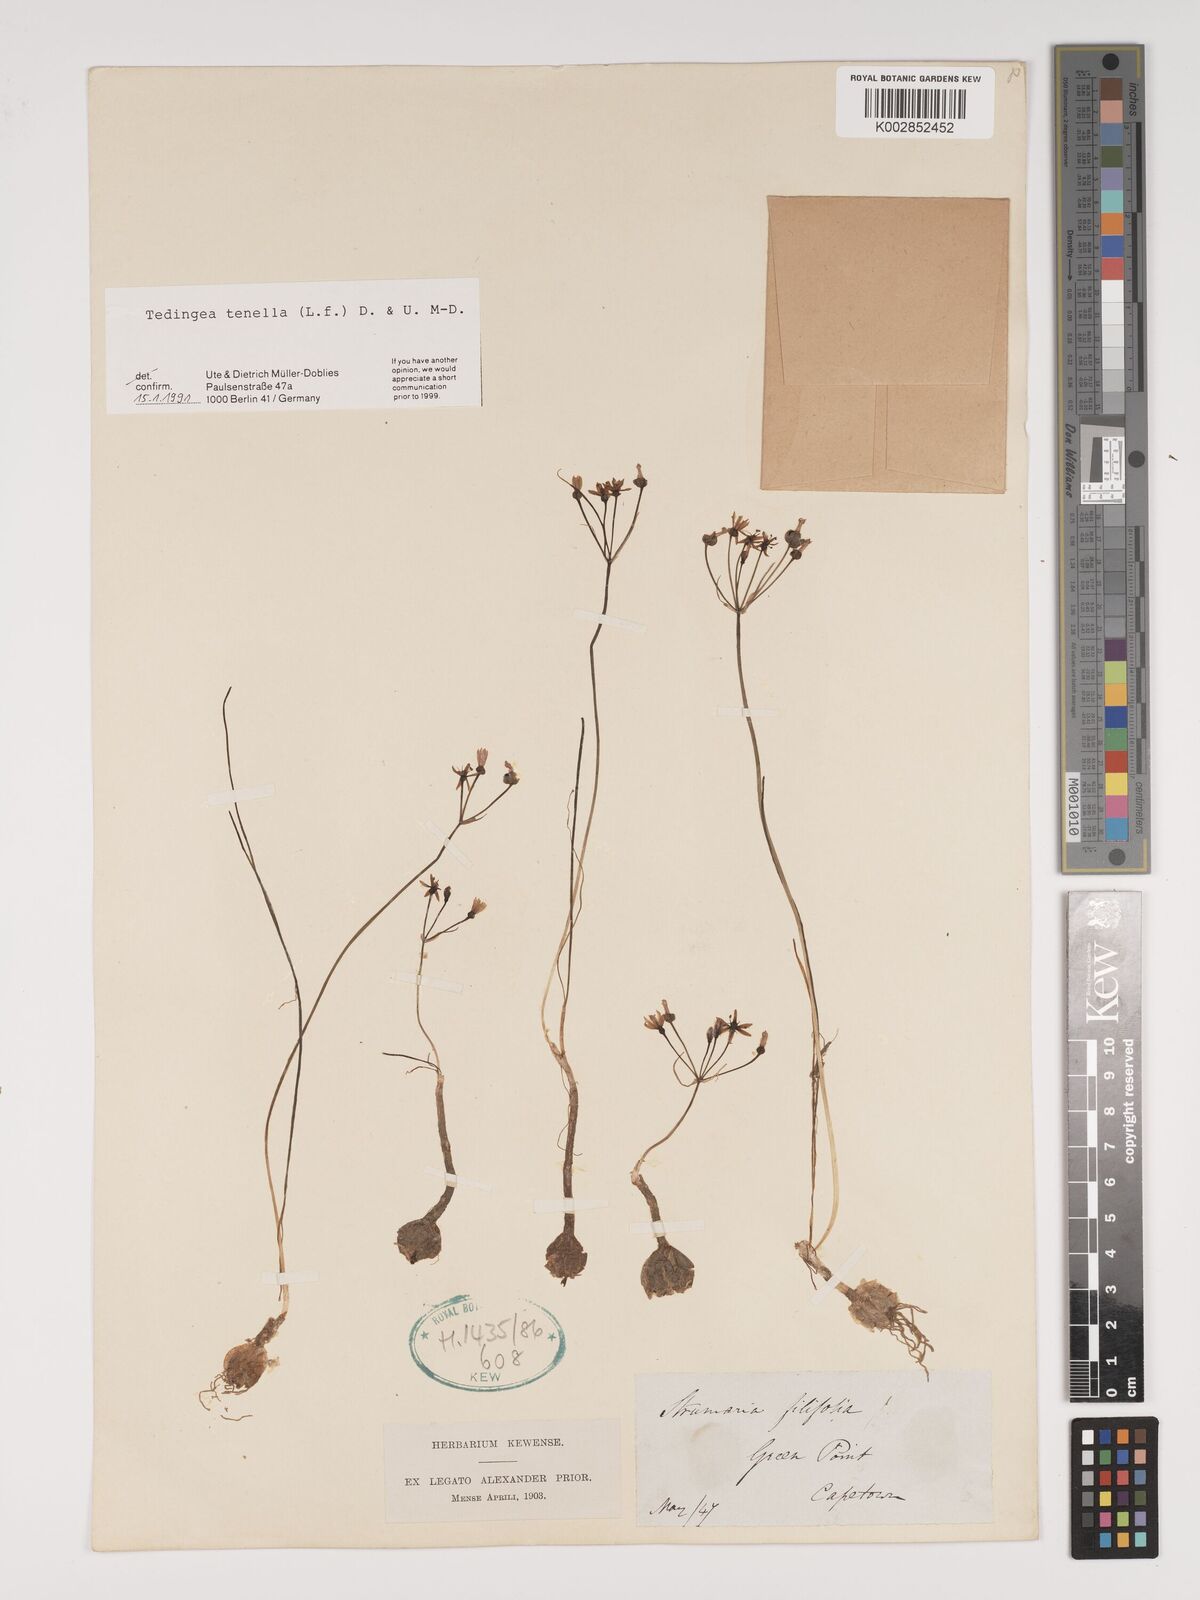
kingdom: Plantae
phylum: Tracheophyta
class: Liliopsida
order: Asparagales
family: Amaryllidaceae
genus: Strumaria
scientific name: Strumaria tenella
